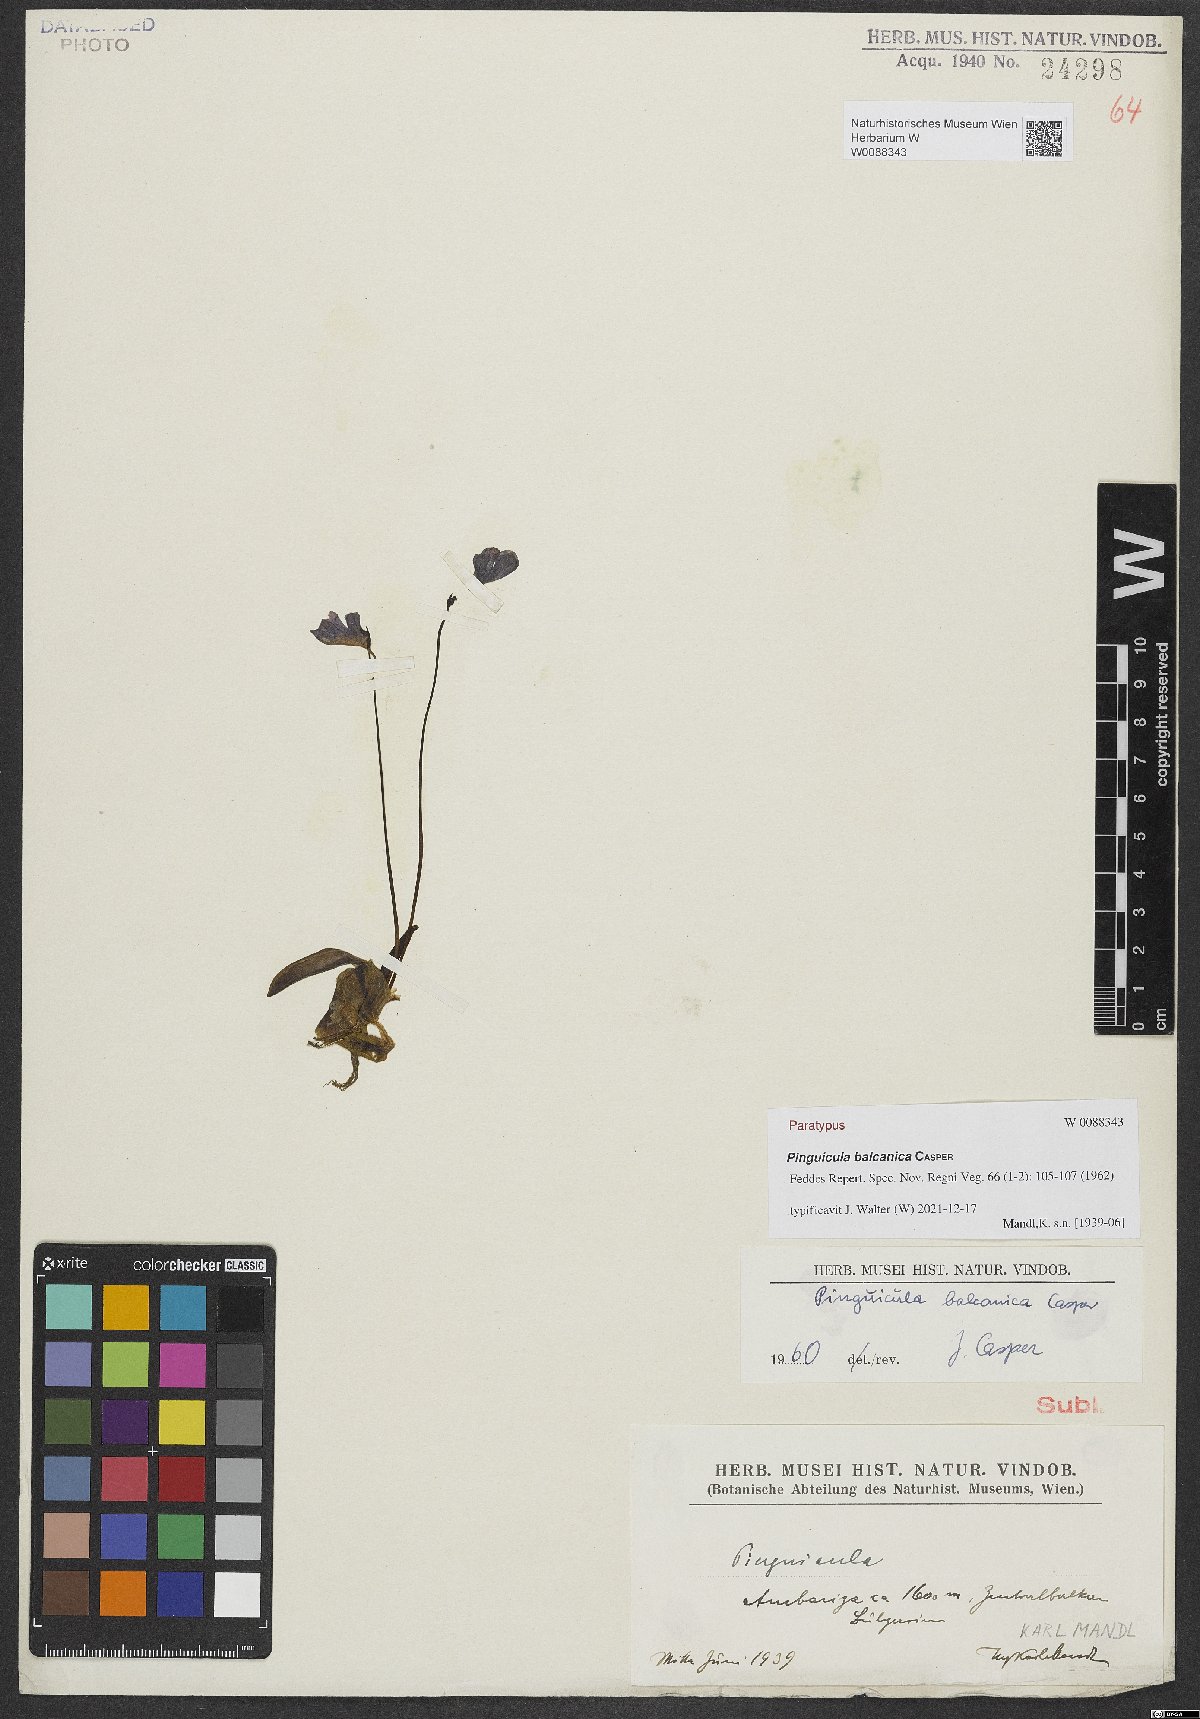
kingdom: Plantae
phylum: Tracheophyta
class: Magnoliopsida
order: Lamiales
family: Lentibulariaceae
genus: Pinguicula
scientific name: Pinguicula balcanica
